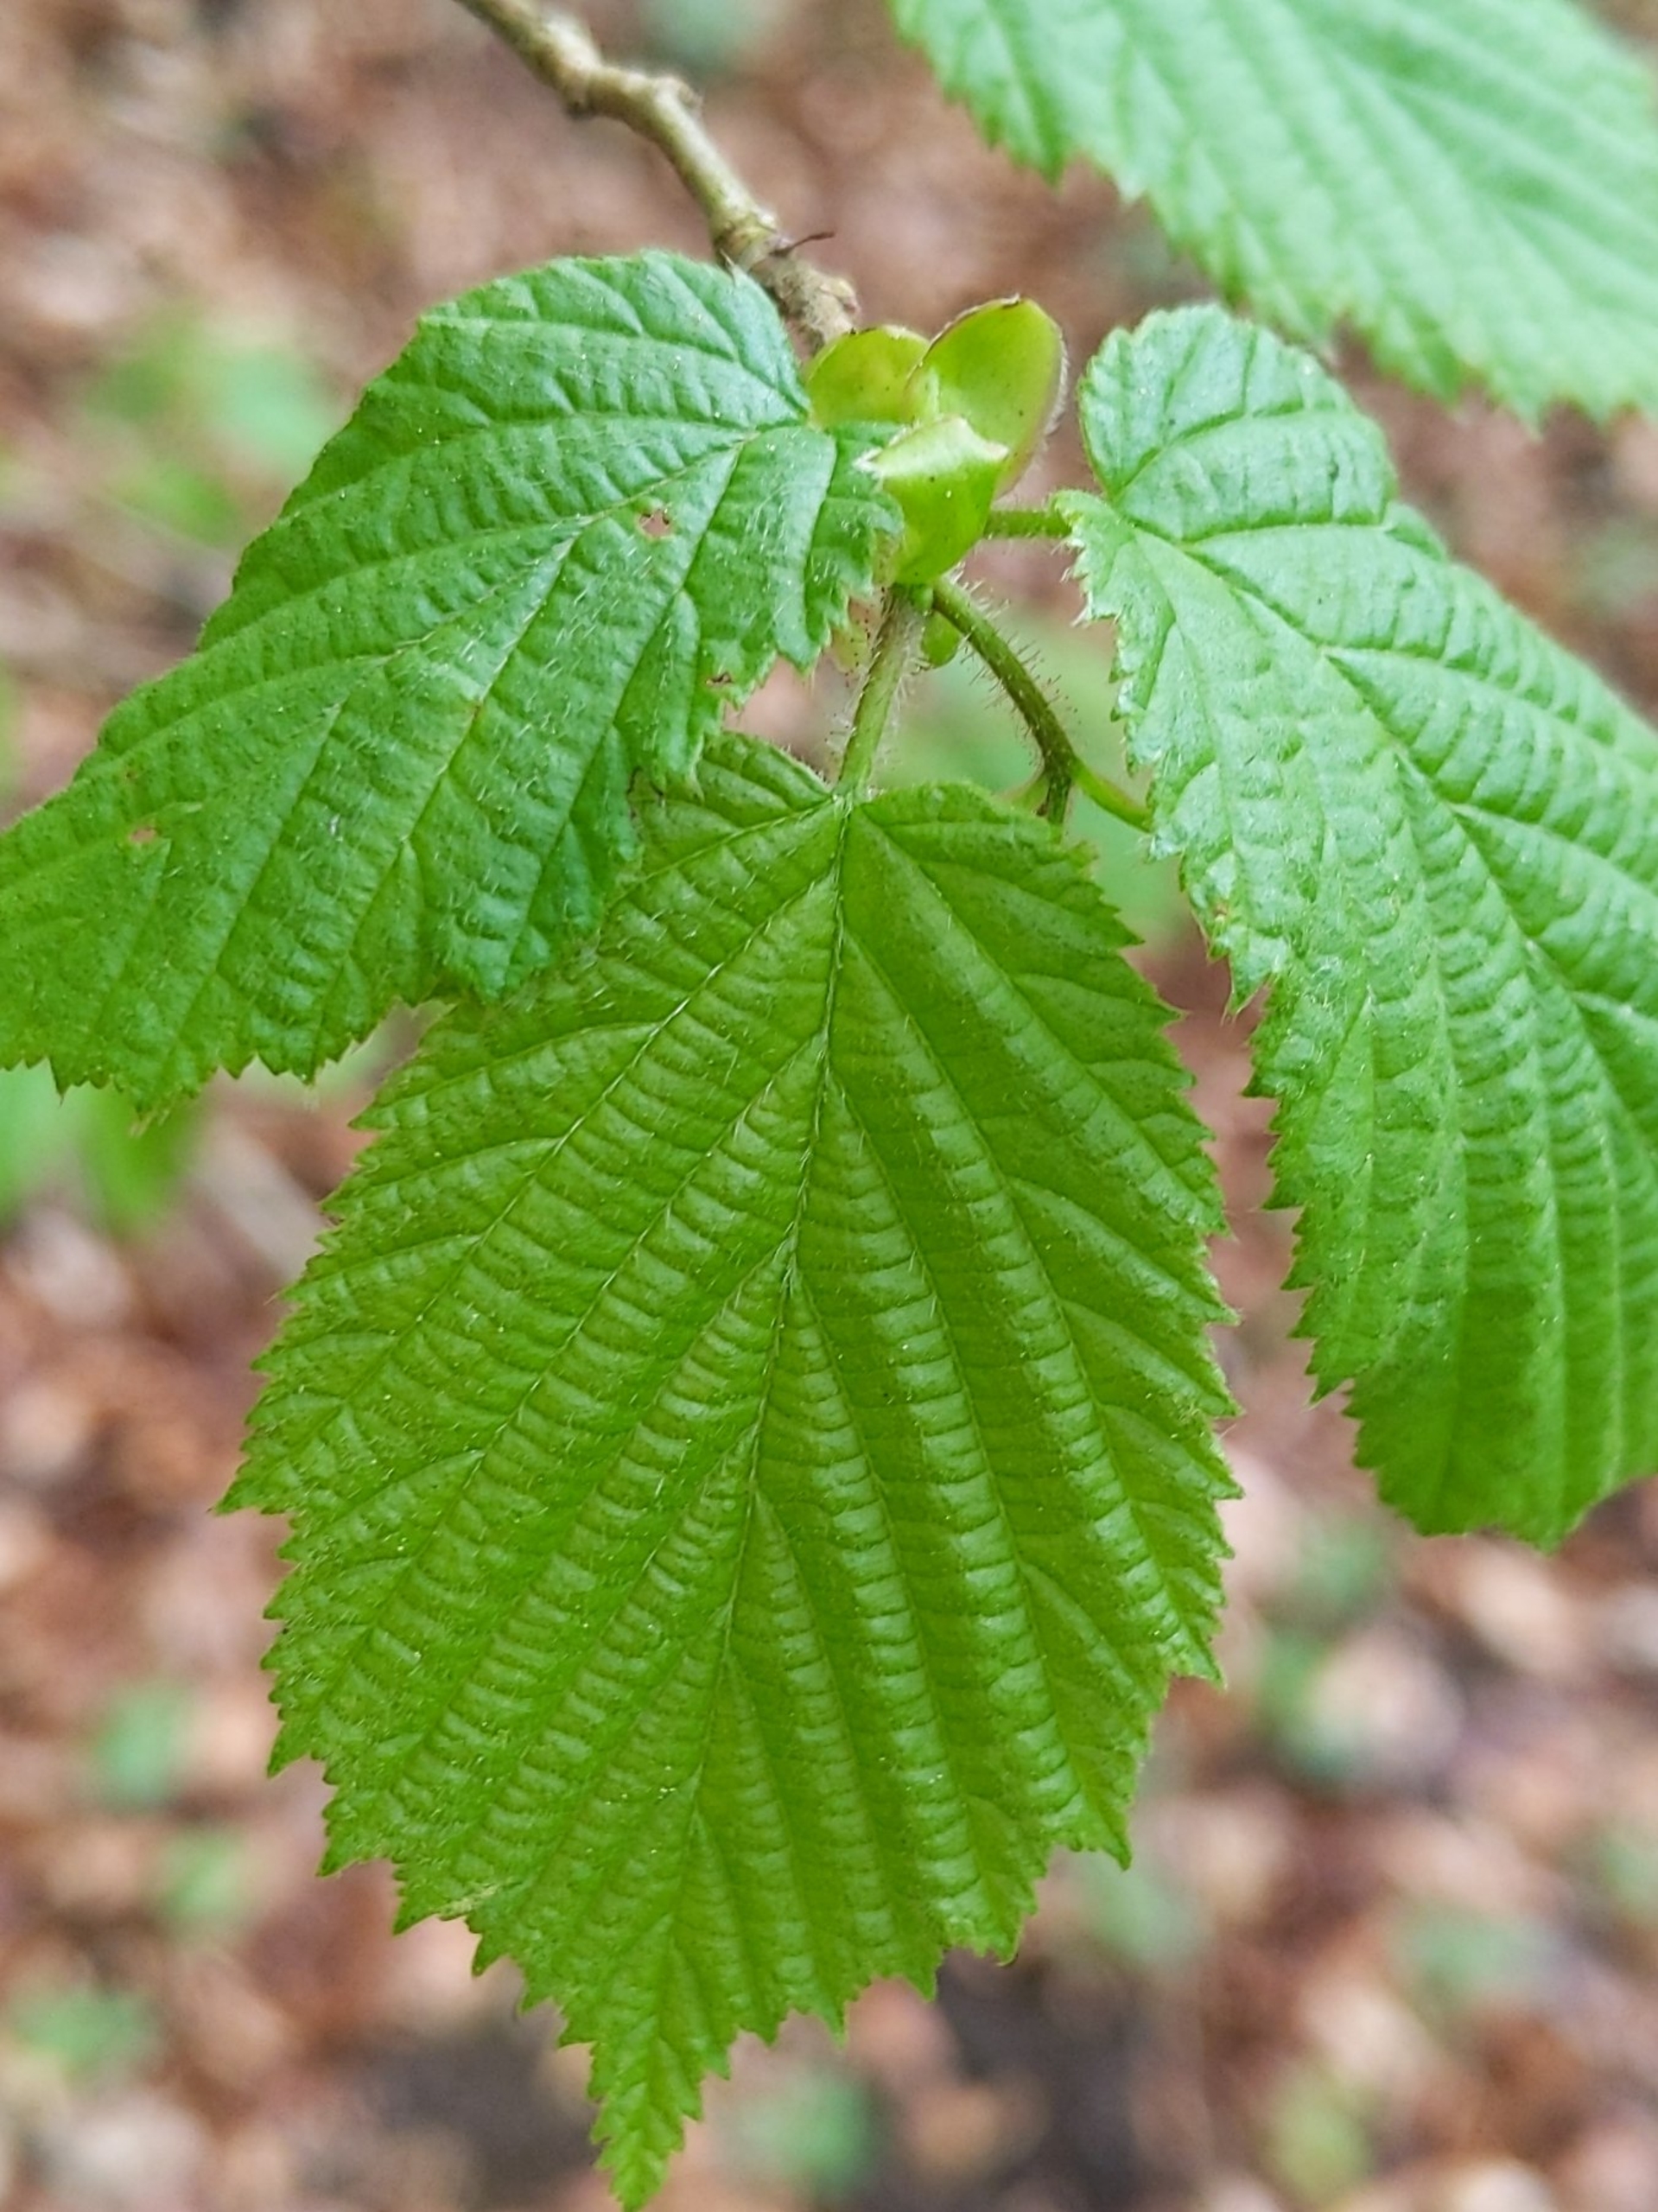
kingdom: Plantae
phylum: Tracheophyta
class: Magnoliopsida
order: Fagales
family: Betulaceae
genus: Corylus
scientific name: Corylus avellana
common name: Hassel
